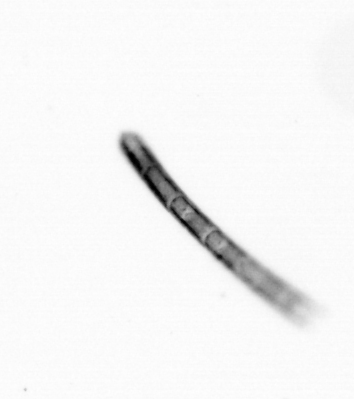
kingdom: Chromista
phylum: Ochrophyta
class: Bacillariophyceae
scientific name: Bacillariophyceae
